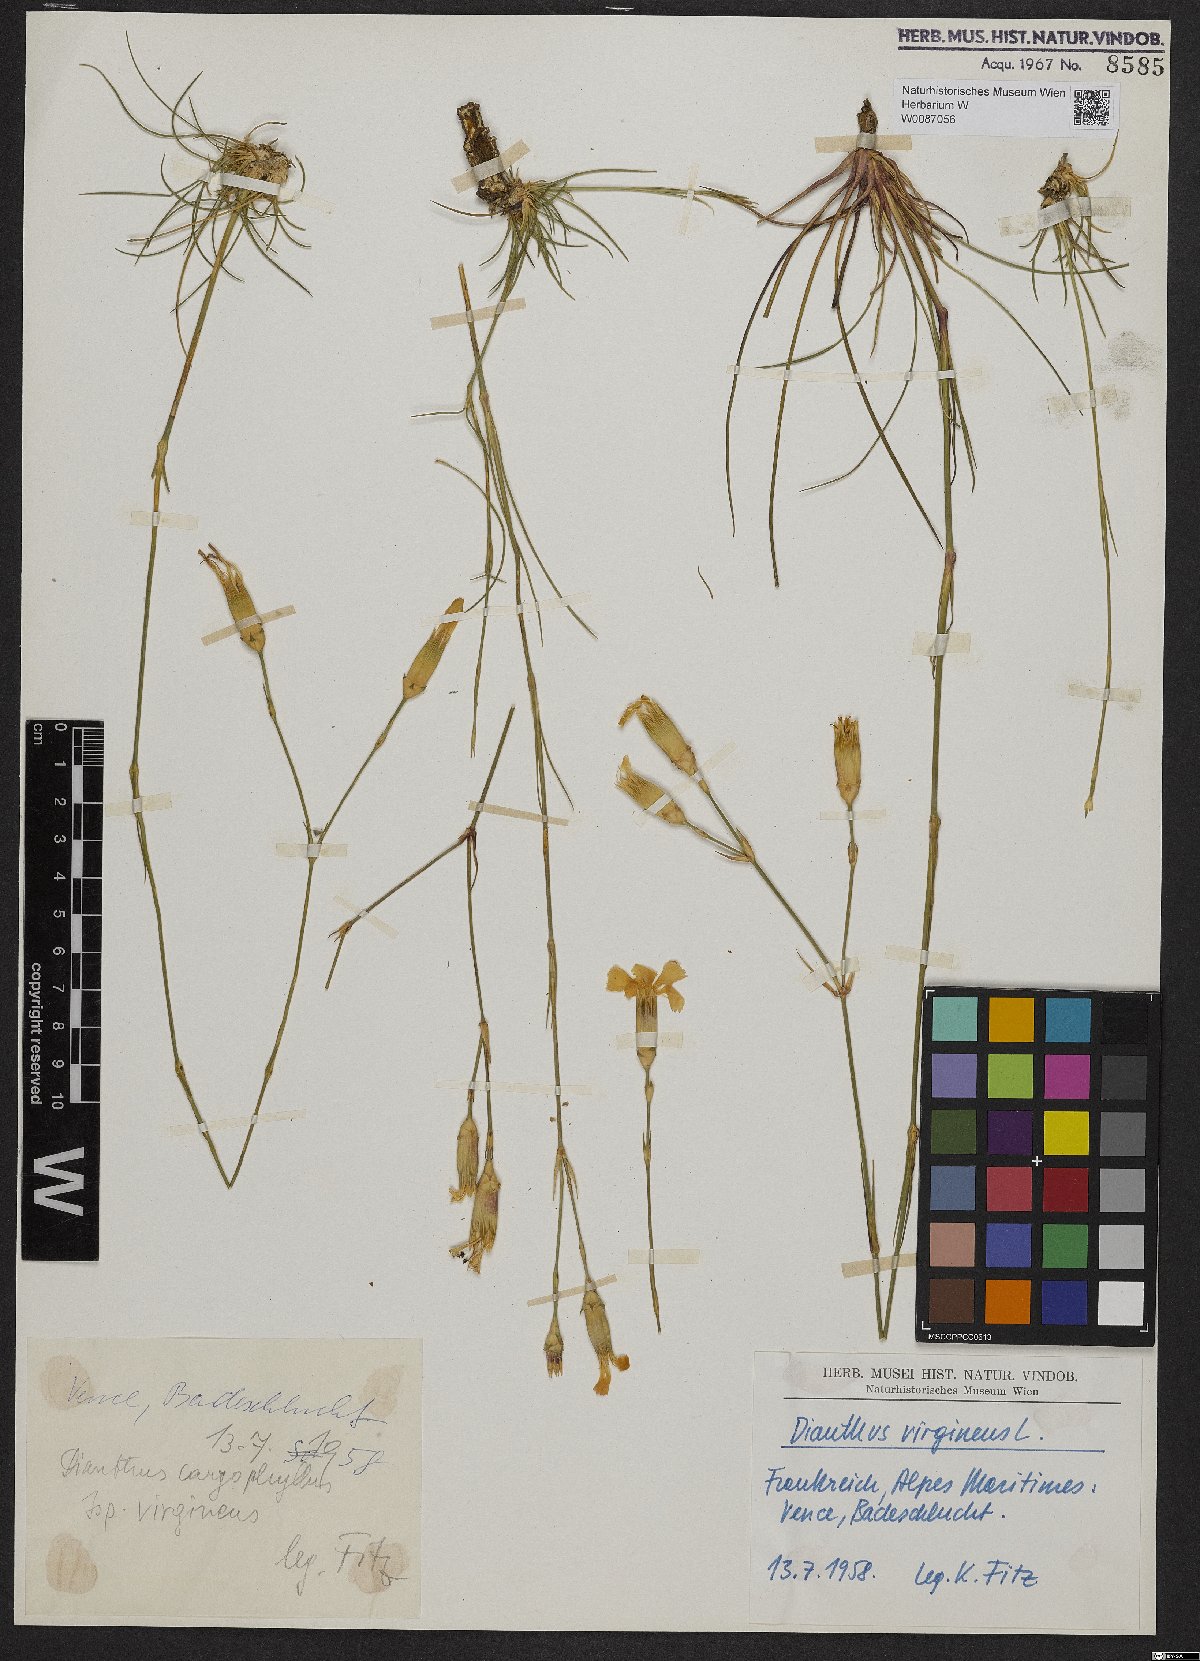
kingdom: Plantae
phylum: Tracheophyta
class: Magnoliopsida
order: Caryophyllales
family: Caryophyllaceae
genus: Dianthus
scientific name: Dianthus virgineus
